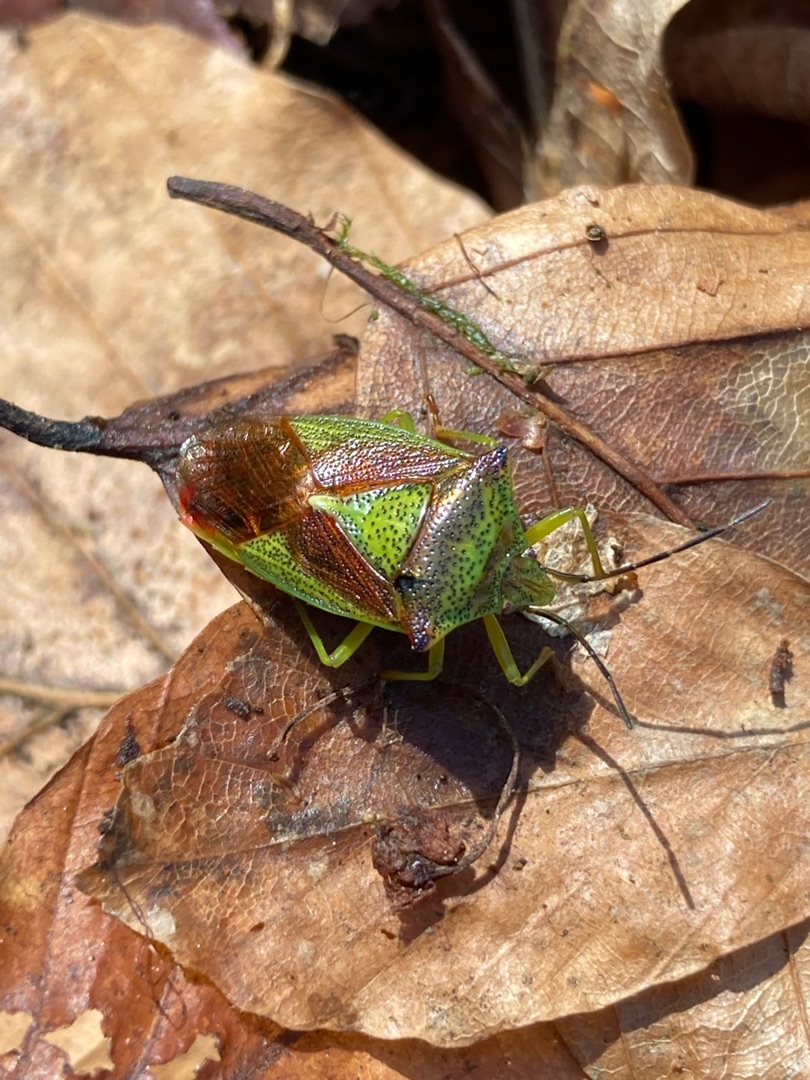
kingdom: Animalia
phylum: Arthropoda
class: Insecta
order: Hemiptera
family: Acanthosomatidae
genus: Acanthosoma
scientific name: Acanthosoma haemorrhoidale
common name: Stor løvtæge
